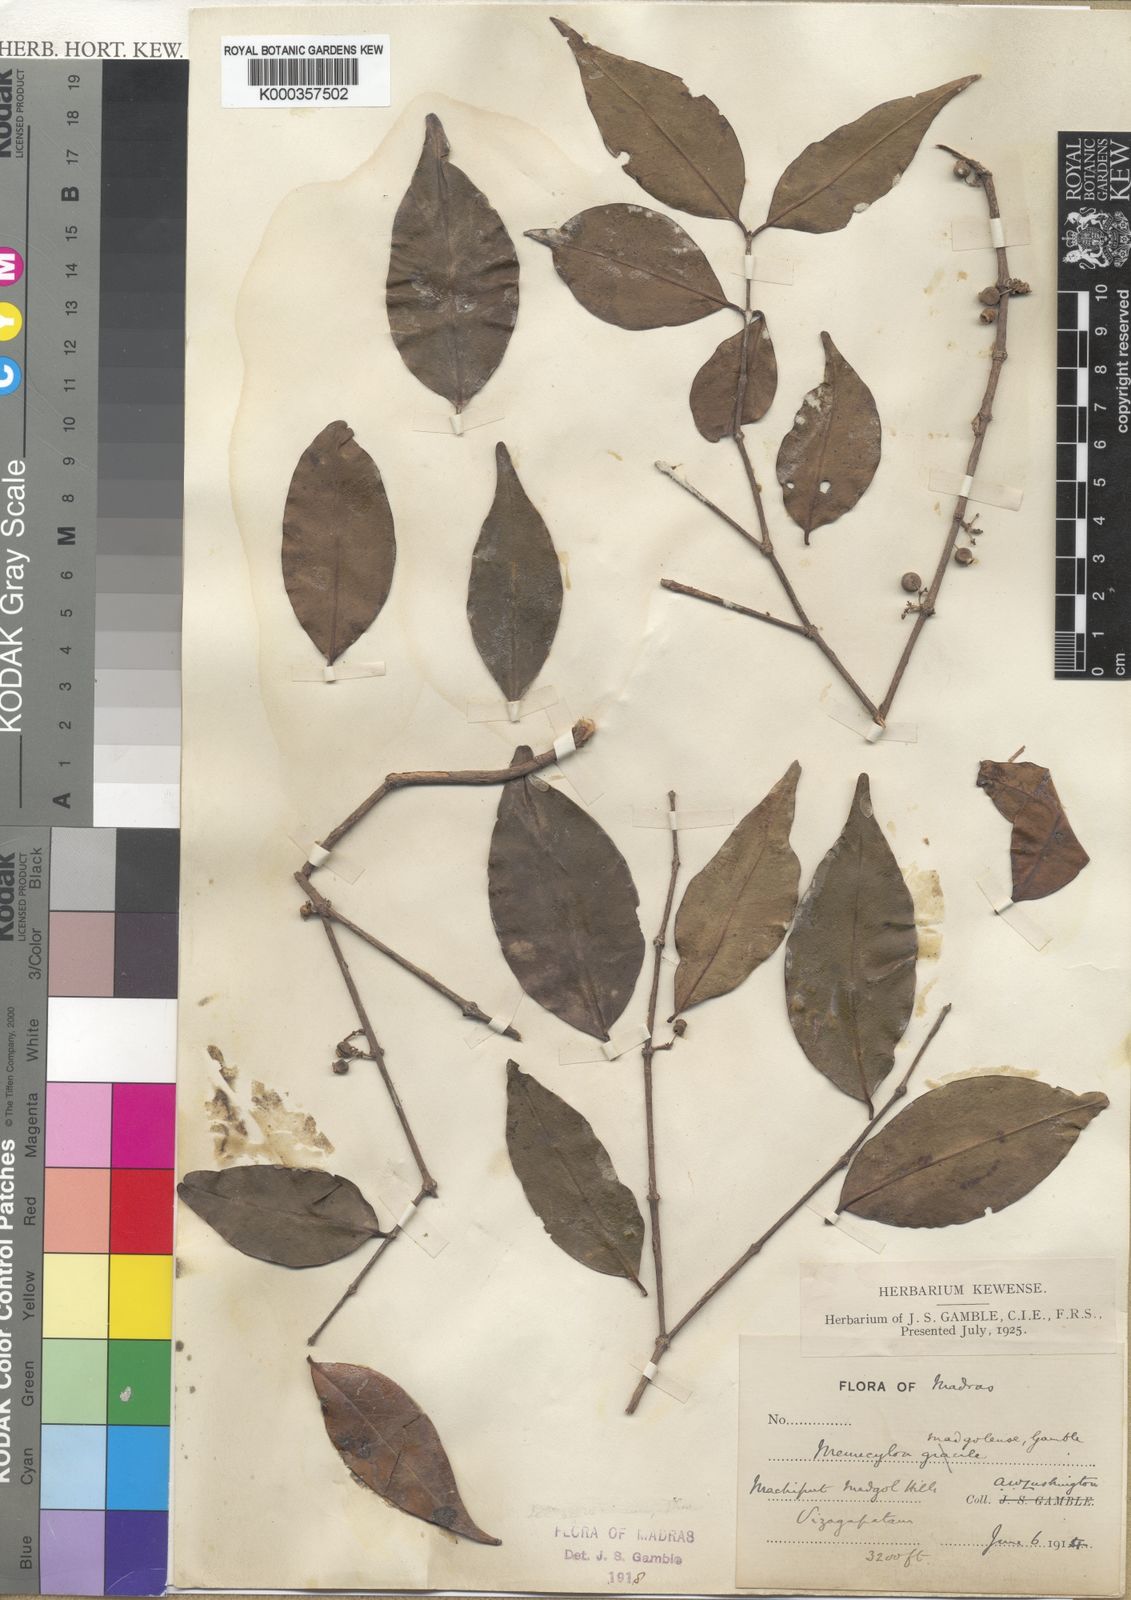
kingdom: Plantae
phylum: Tracheophyta
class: Magnoliopsida
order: Myrtales
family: Melastomataceae
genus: Memecylon
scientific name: Memecylon madgolense
